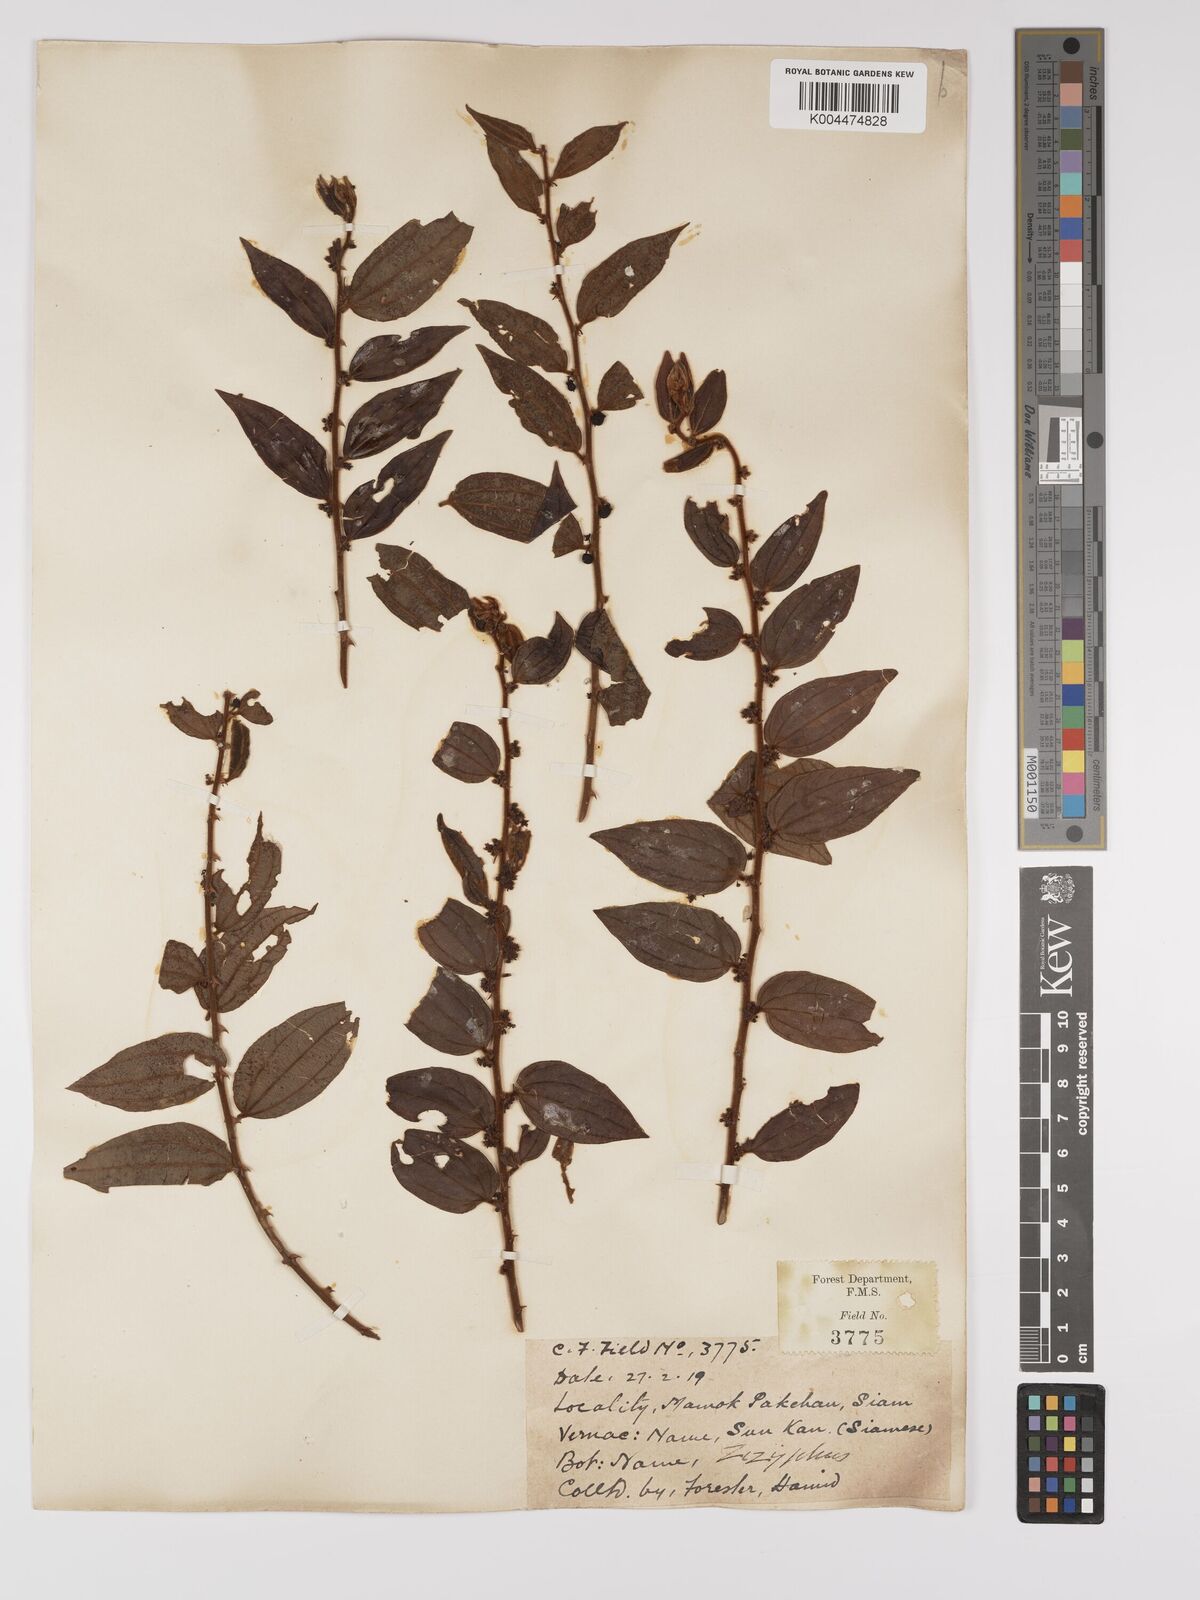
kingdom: Plantae
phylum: Tracheophyta
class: Magnoliopsida
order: Rosales
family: Rhamnaceae
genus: Ziziphus
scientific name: Ziziphus oenopolia
